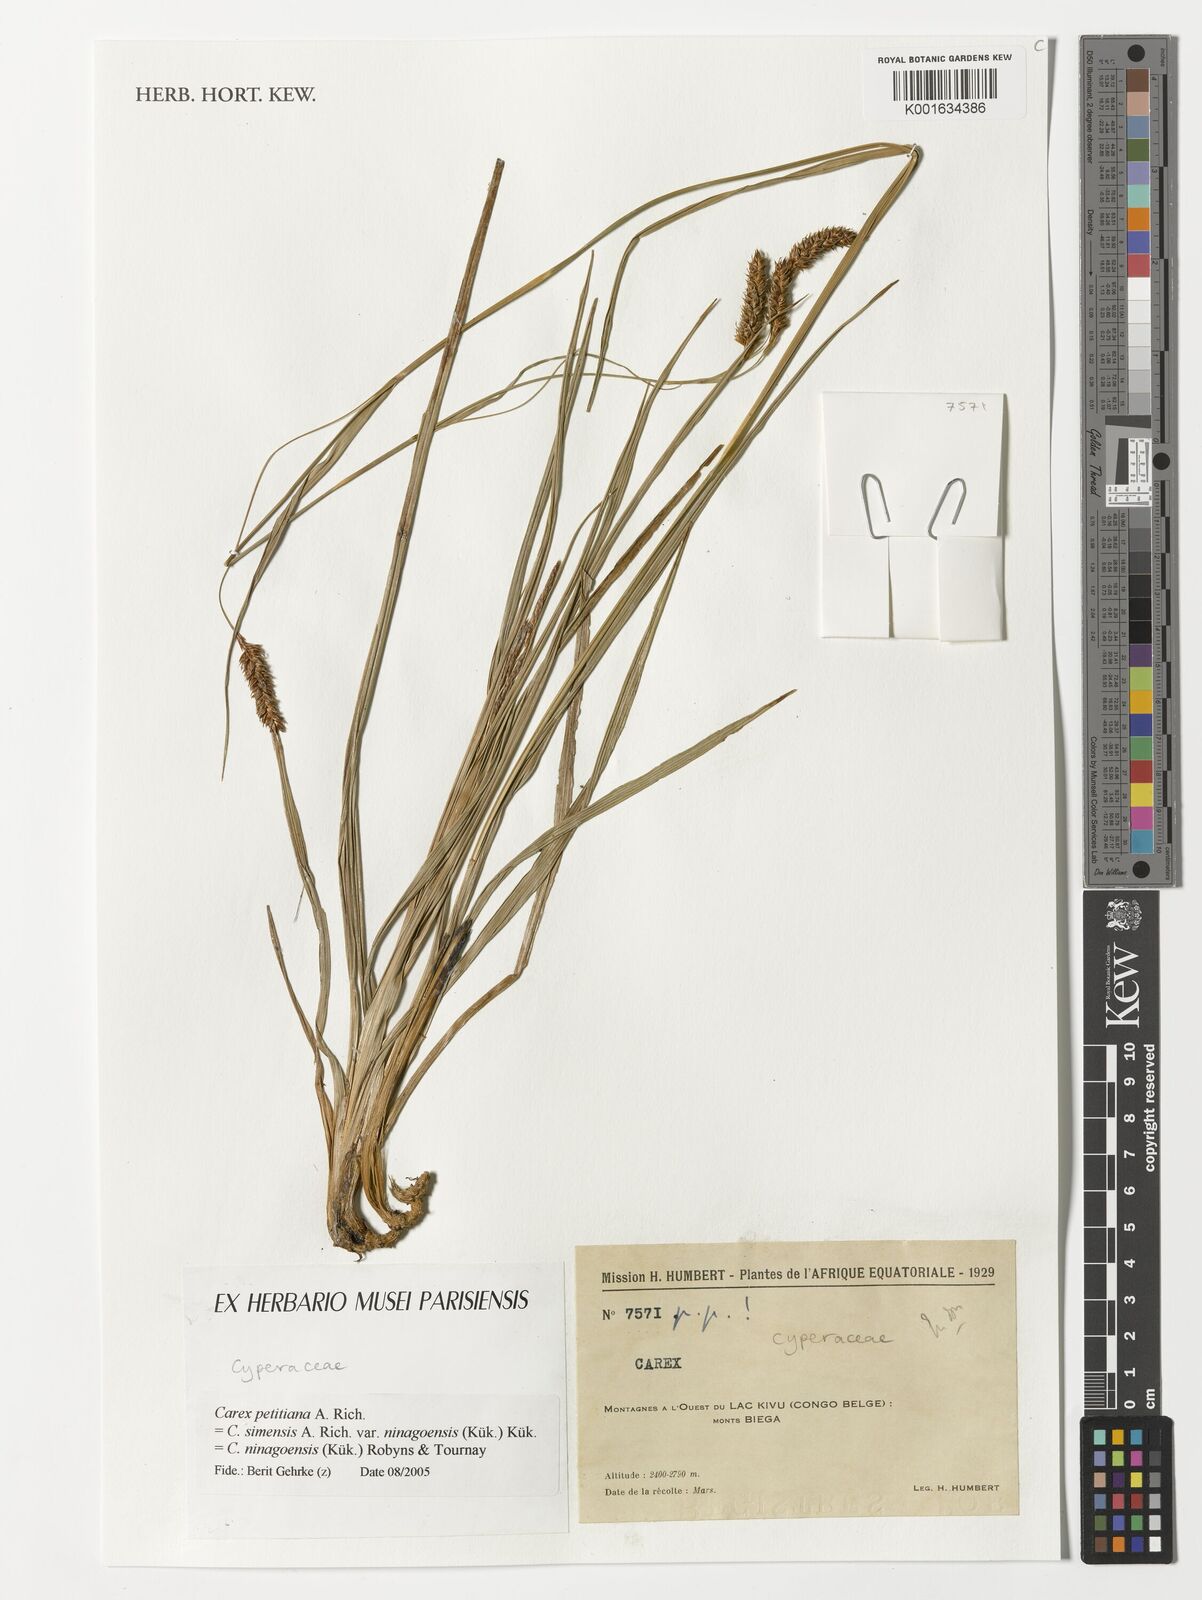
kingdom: Plantae
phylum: Tracheophyta
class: Liliopsida
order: Poales
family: Cyperaceae
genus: Carex
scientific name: Carex petitiana
